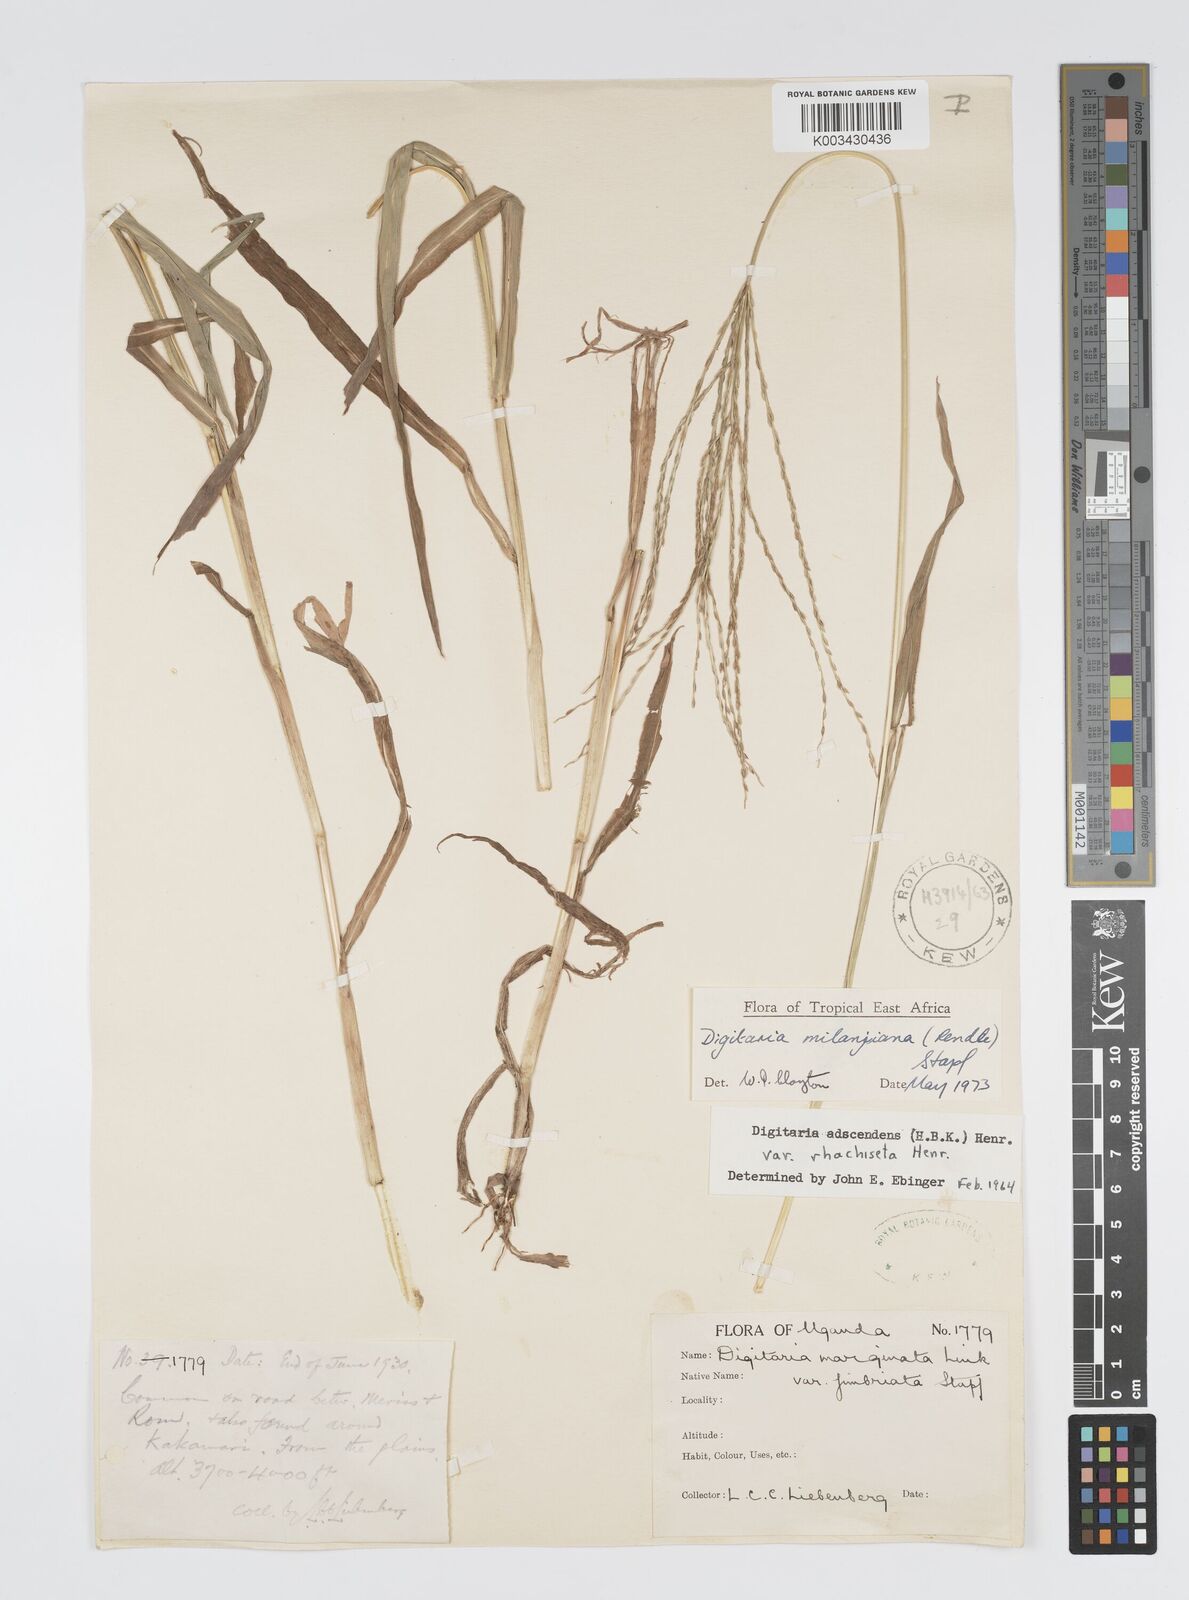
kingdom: Plantae
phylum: Tracheophyta
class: Liliopsida
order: Poales
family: Poaceae
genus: Digitaria
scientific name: Digitaria milanjiana
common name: Madagascar crabgrass
